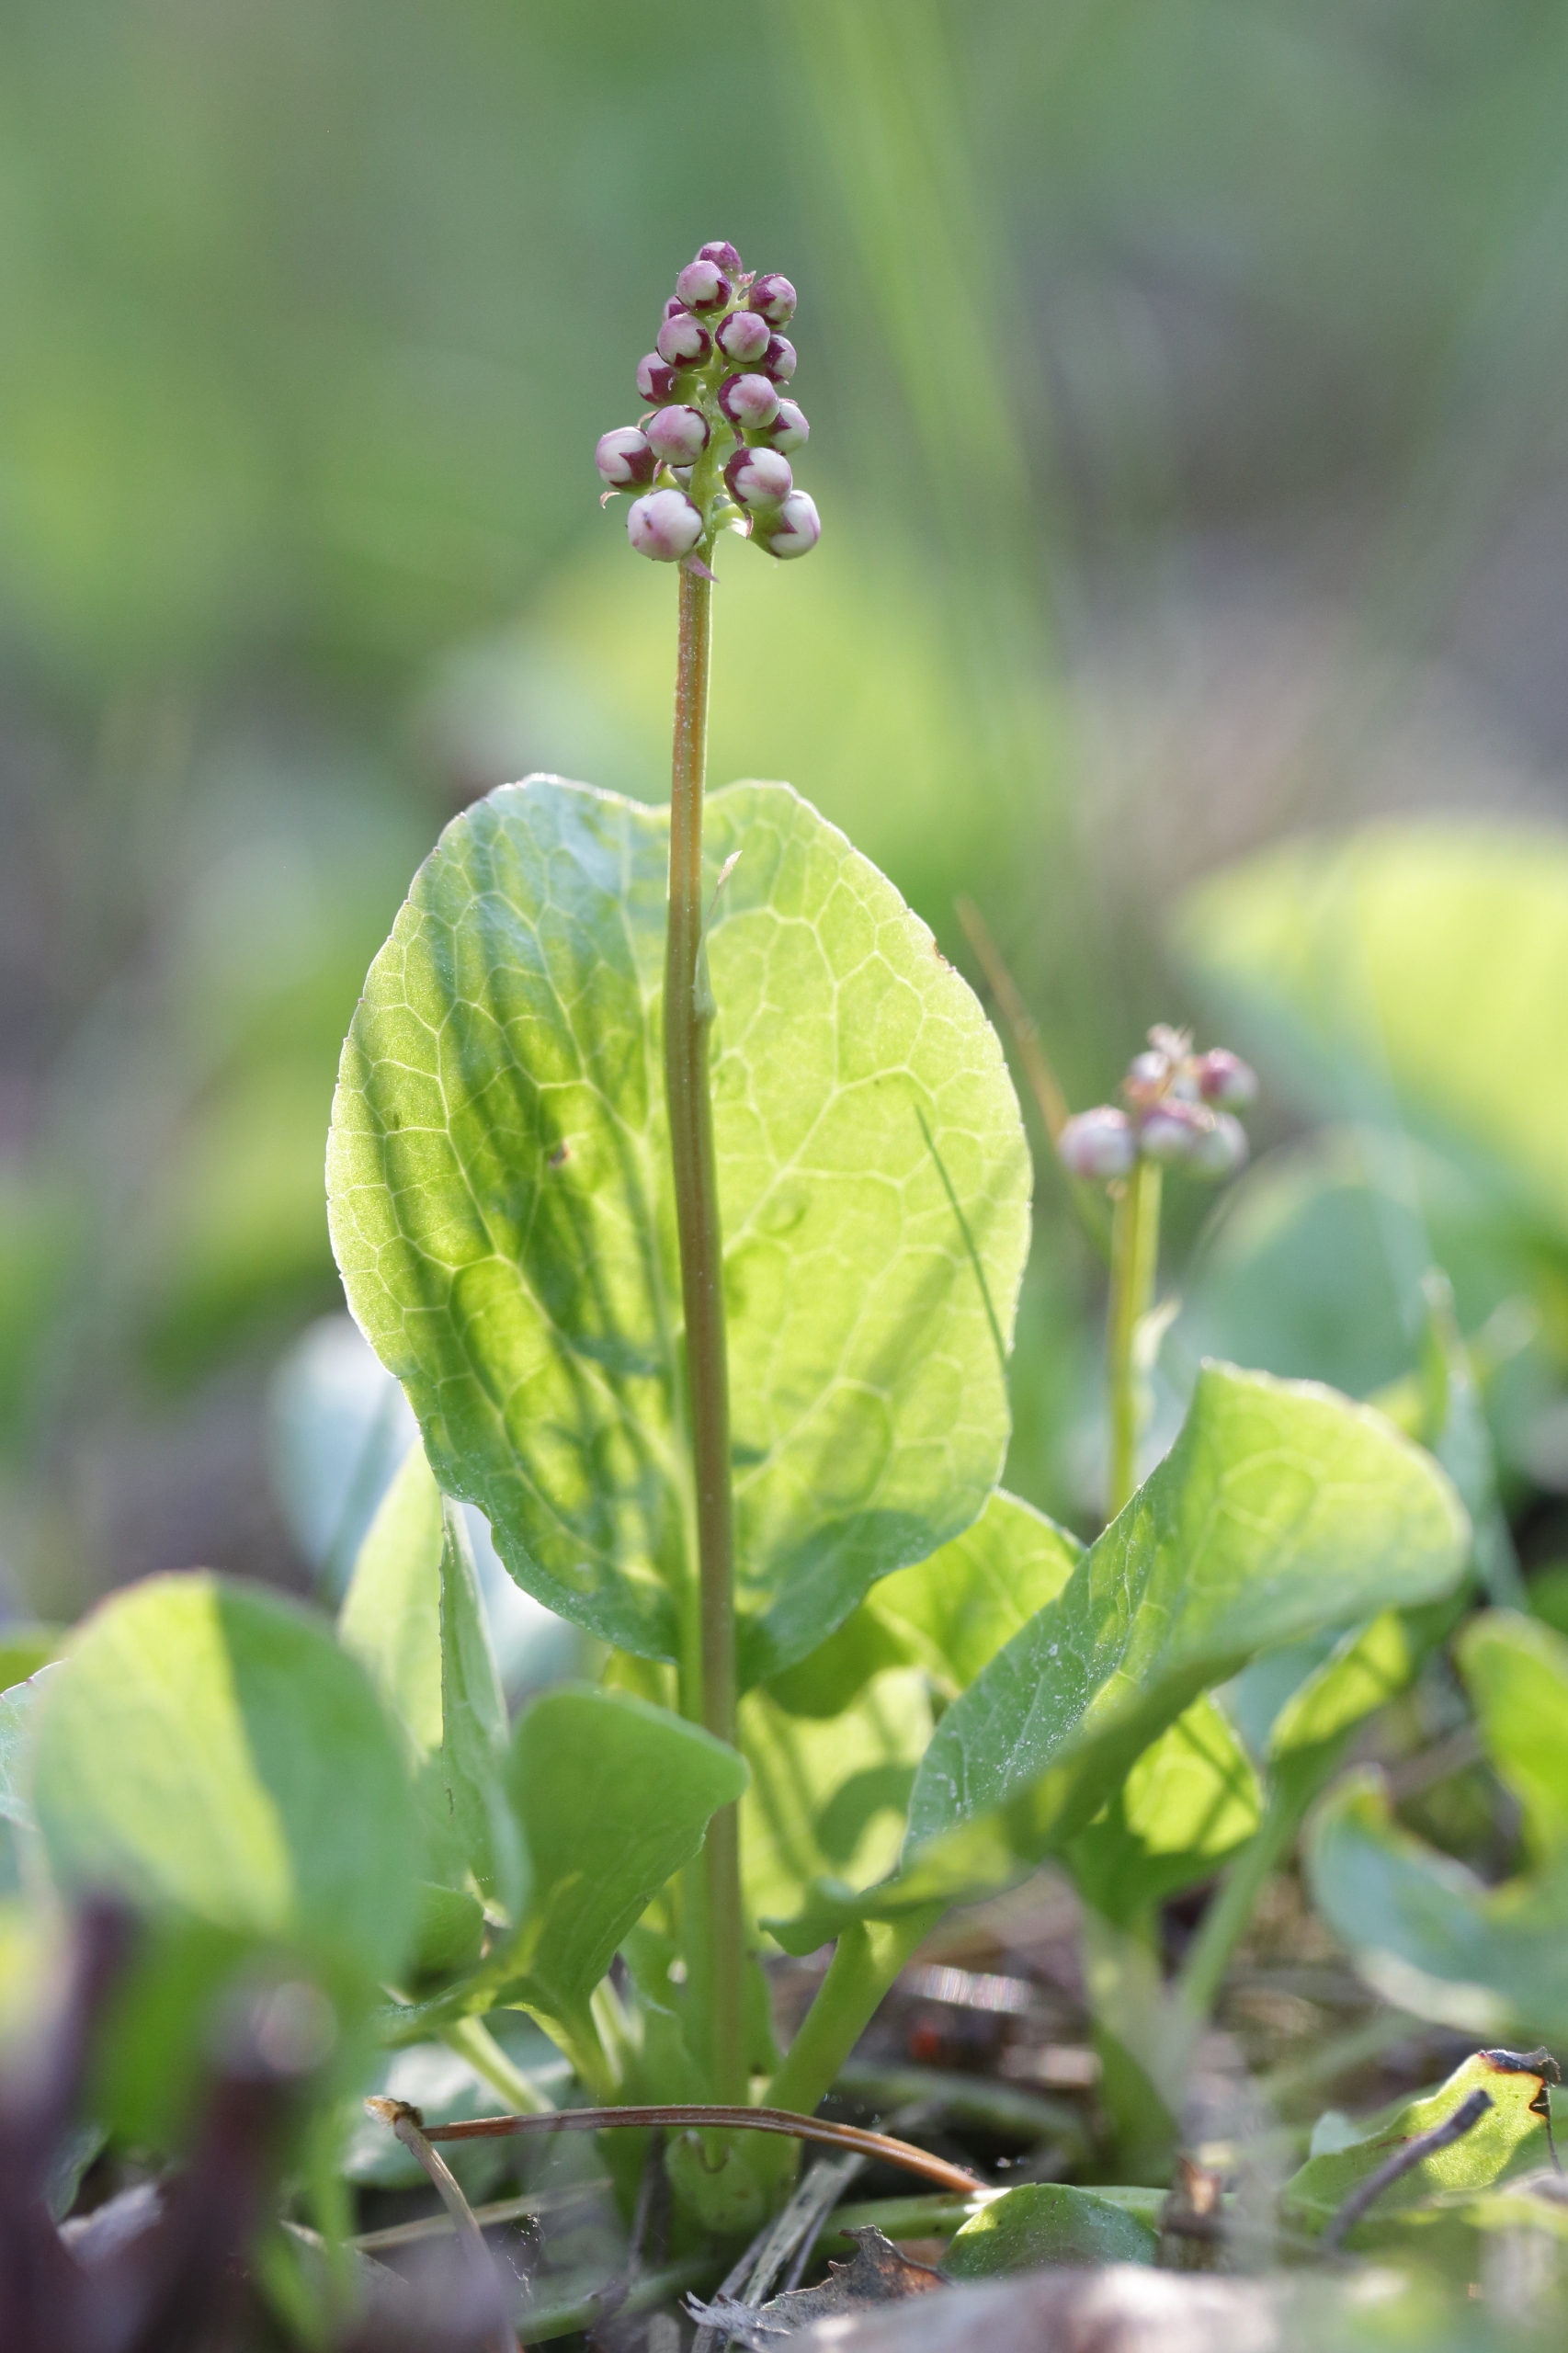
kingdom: Plantae
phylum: Tracheophyta
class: Magnoliopsida
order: Ericales
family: Ericaceae
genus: Pyrola
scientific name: Pyrola minor
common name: Liden vintergrøn
